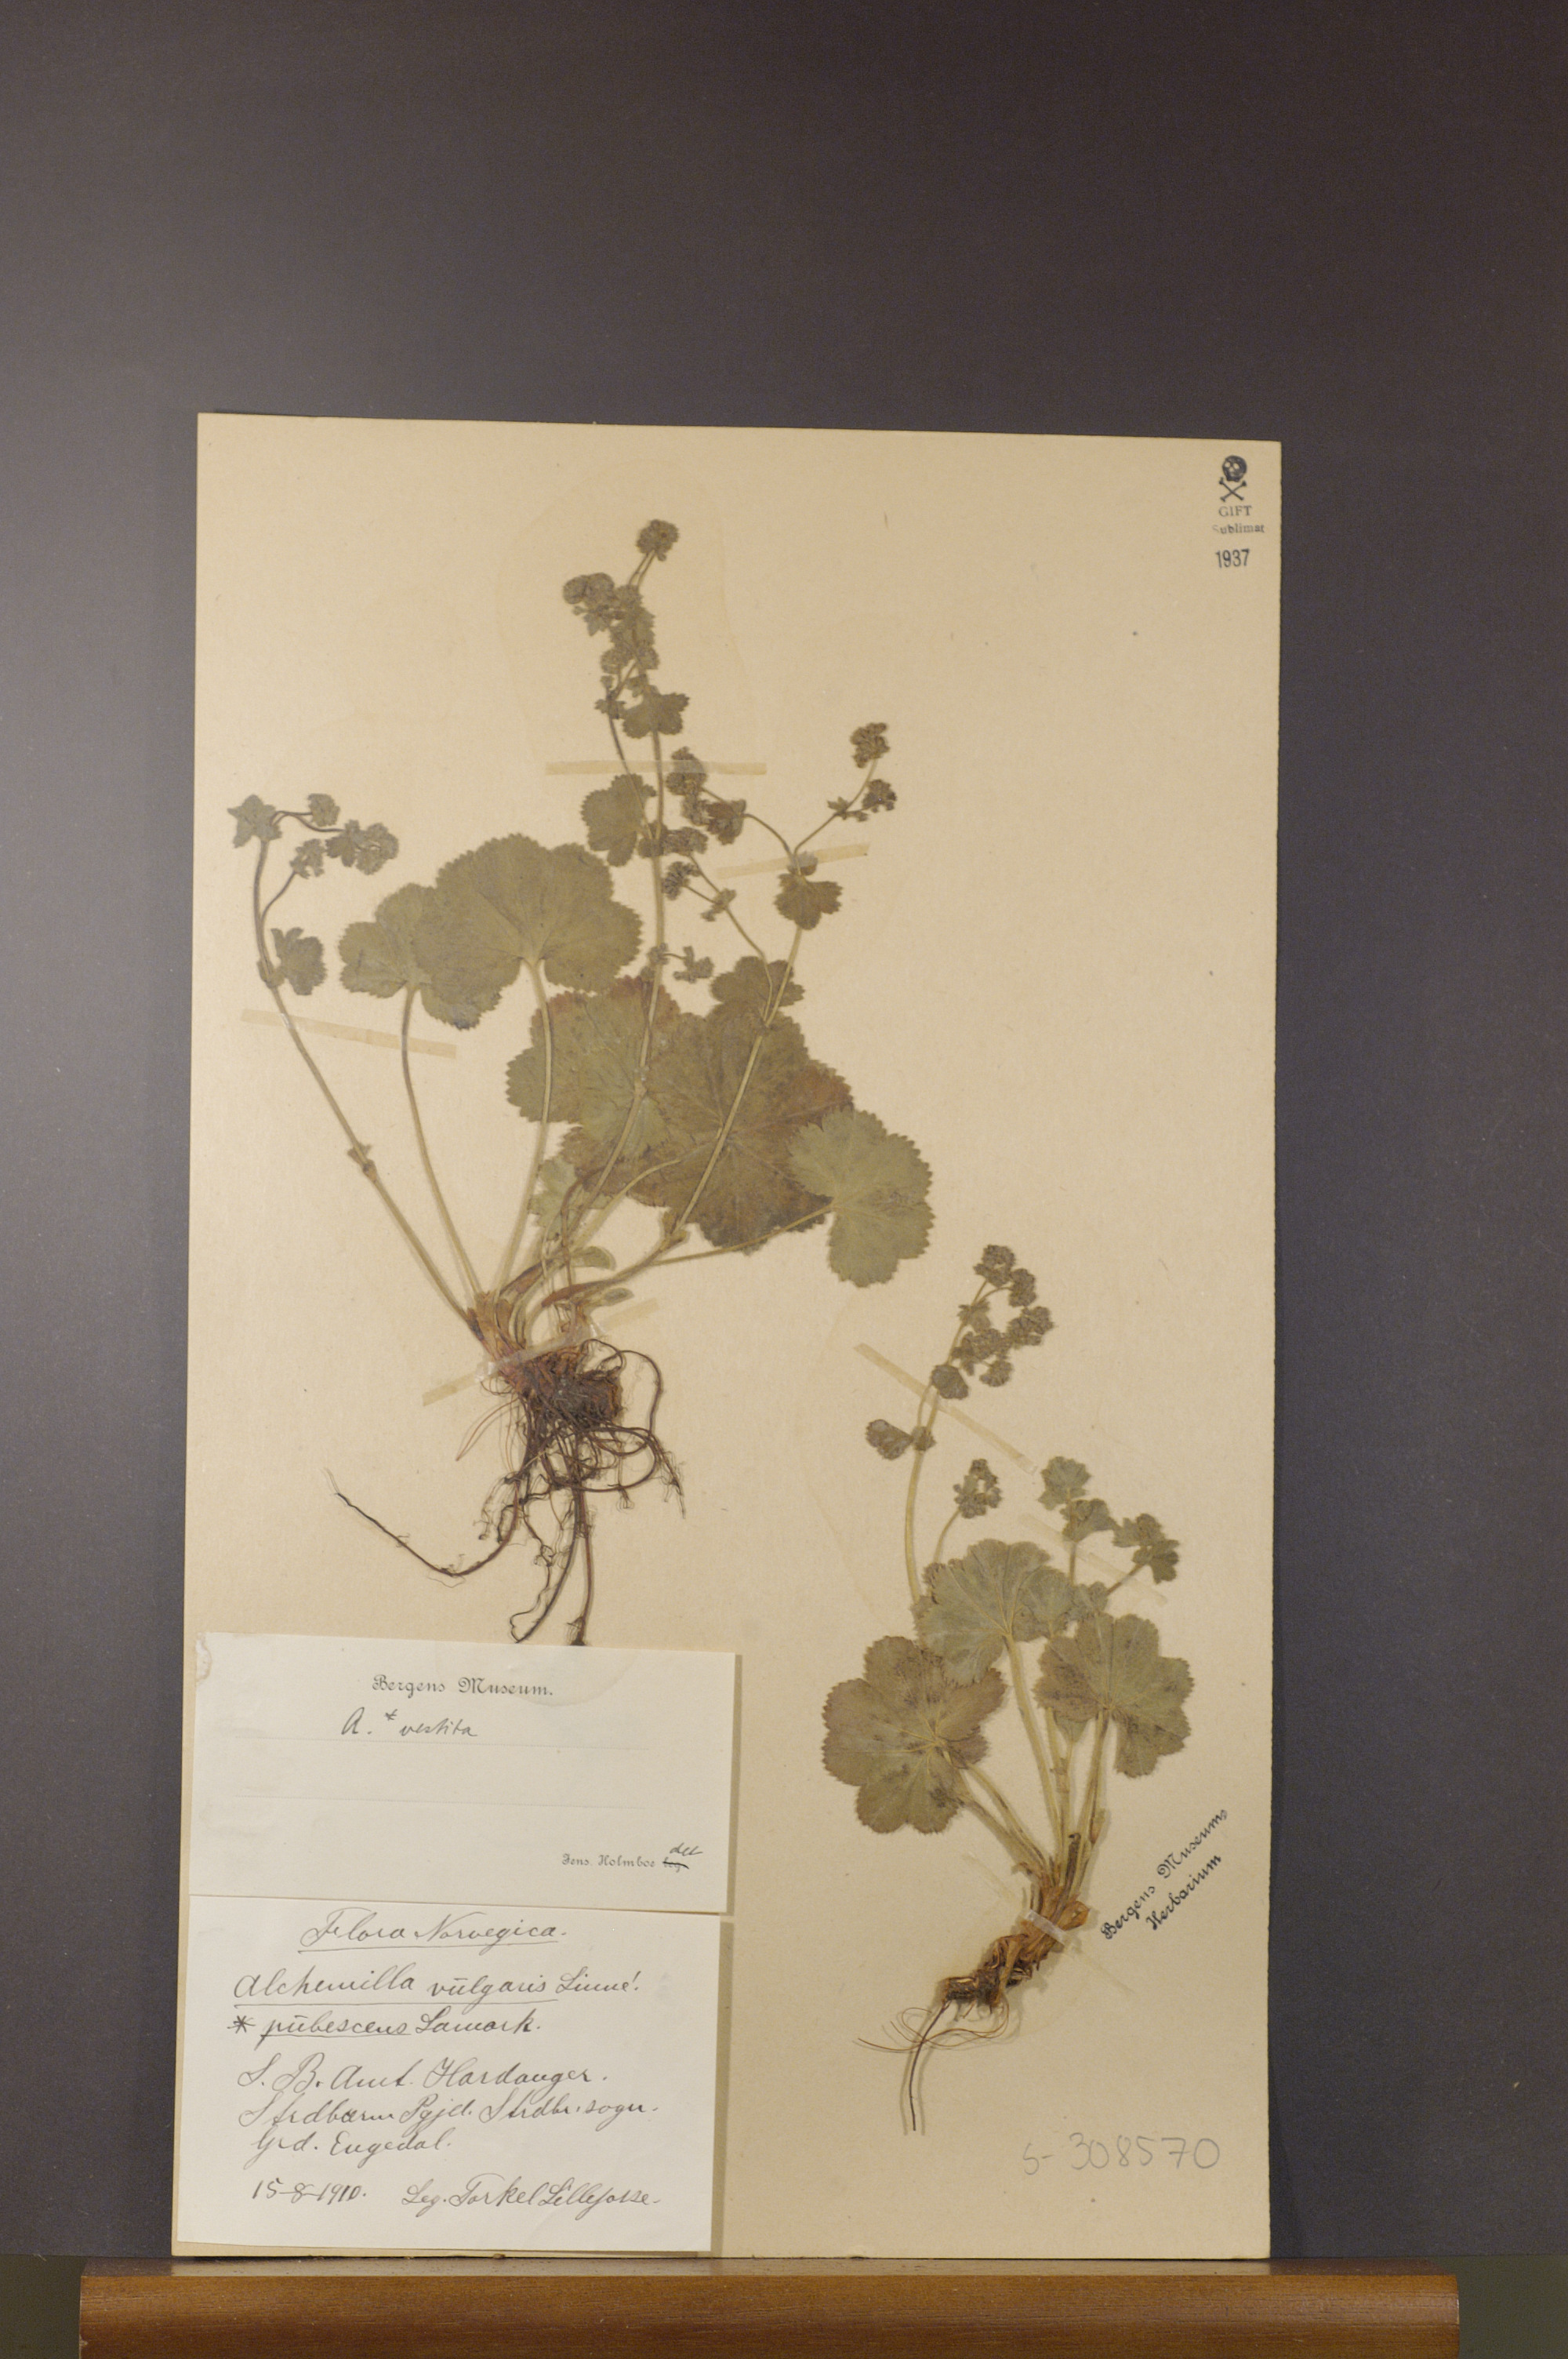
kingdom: Plantae
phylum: Tracheophyta
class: Magnoliopsida
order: Rosales
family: Rosaceae
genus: Alchemilla
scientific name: Alchemilla filicaulis
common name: Hairy lady's-mantle
